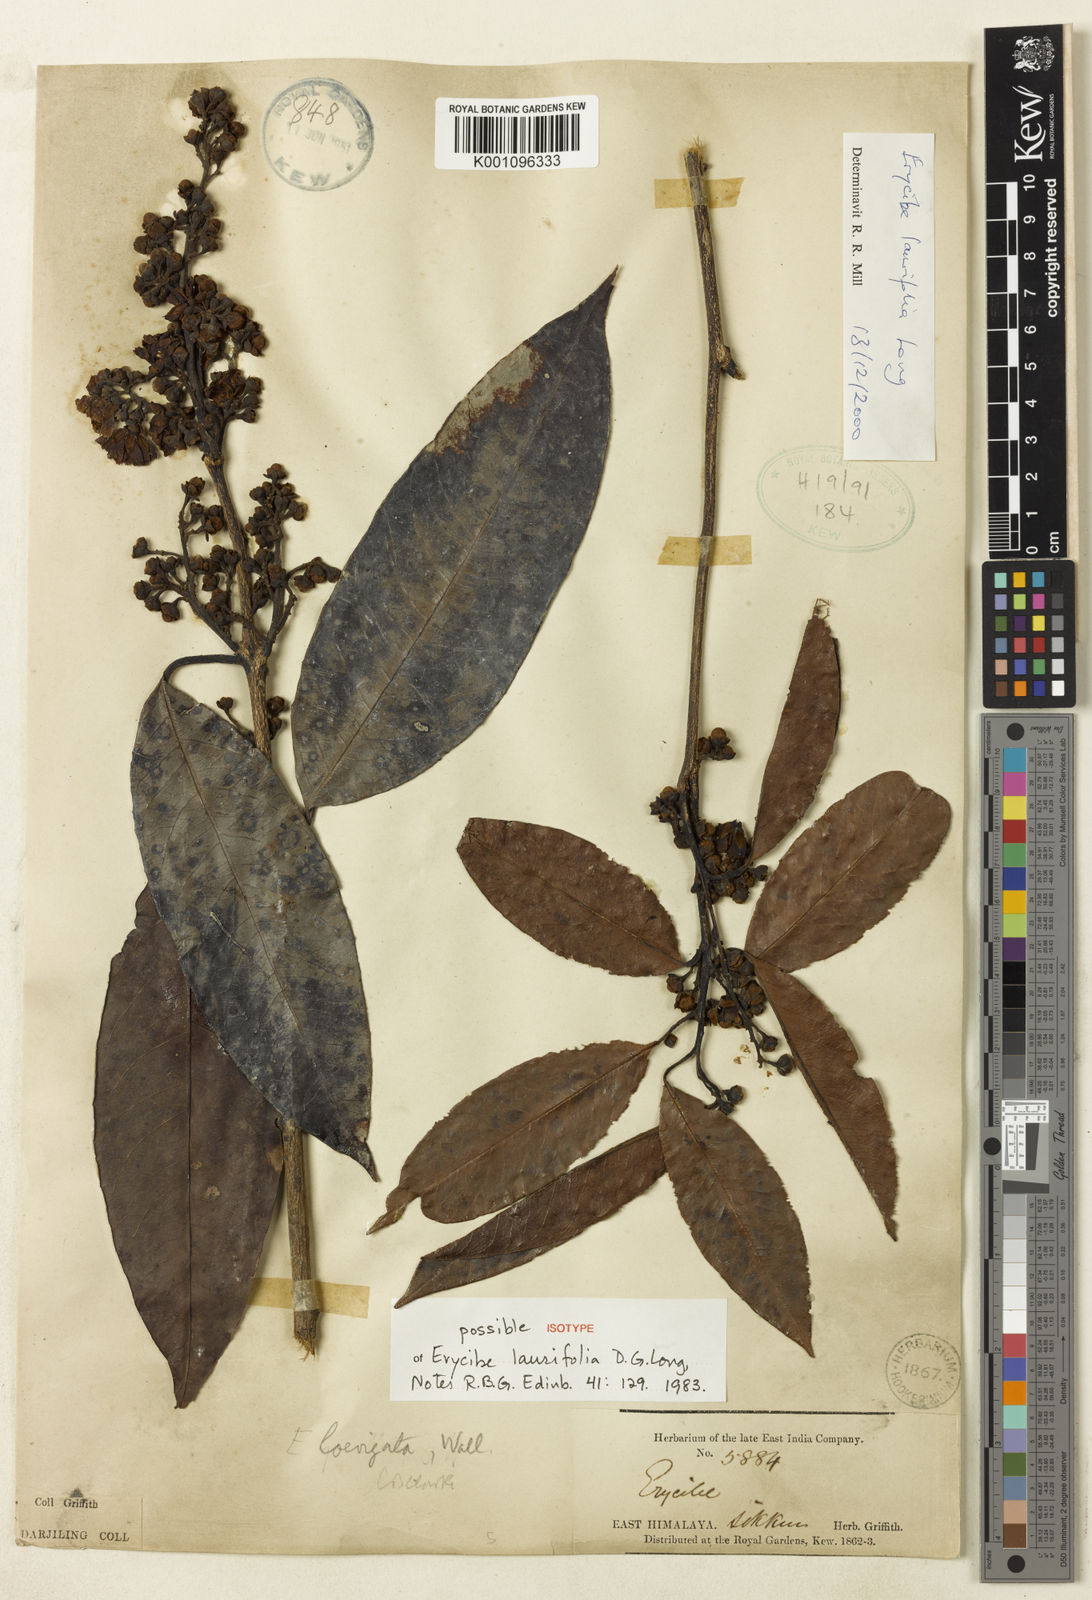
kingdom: Plantae
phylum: Tracheophyta
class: Magnoliopsida
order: Solanales
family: Convolvulaceae
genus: Erycibe
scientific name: Erycibe laurifolia
